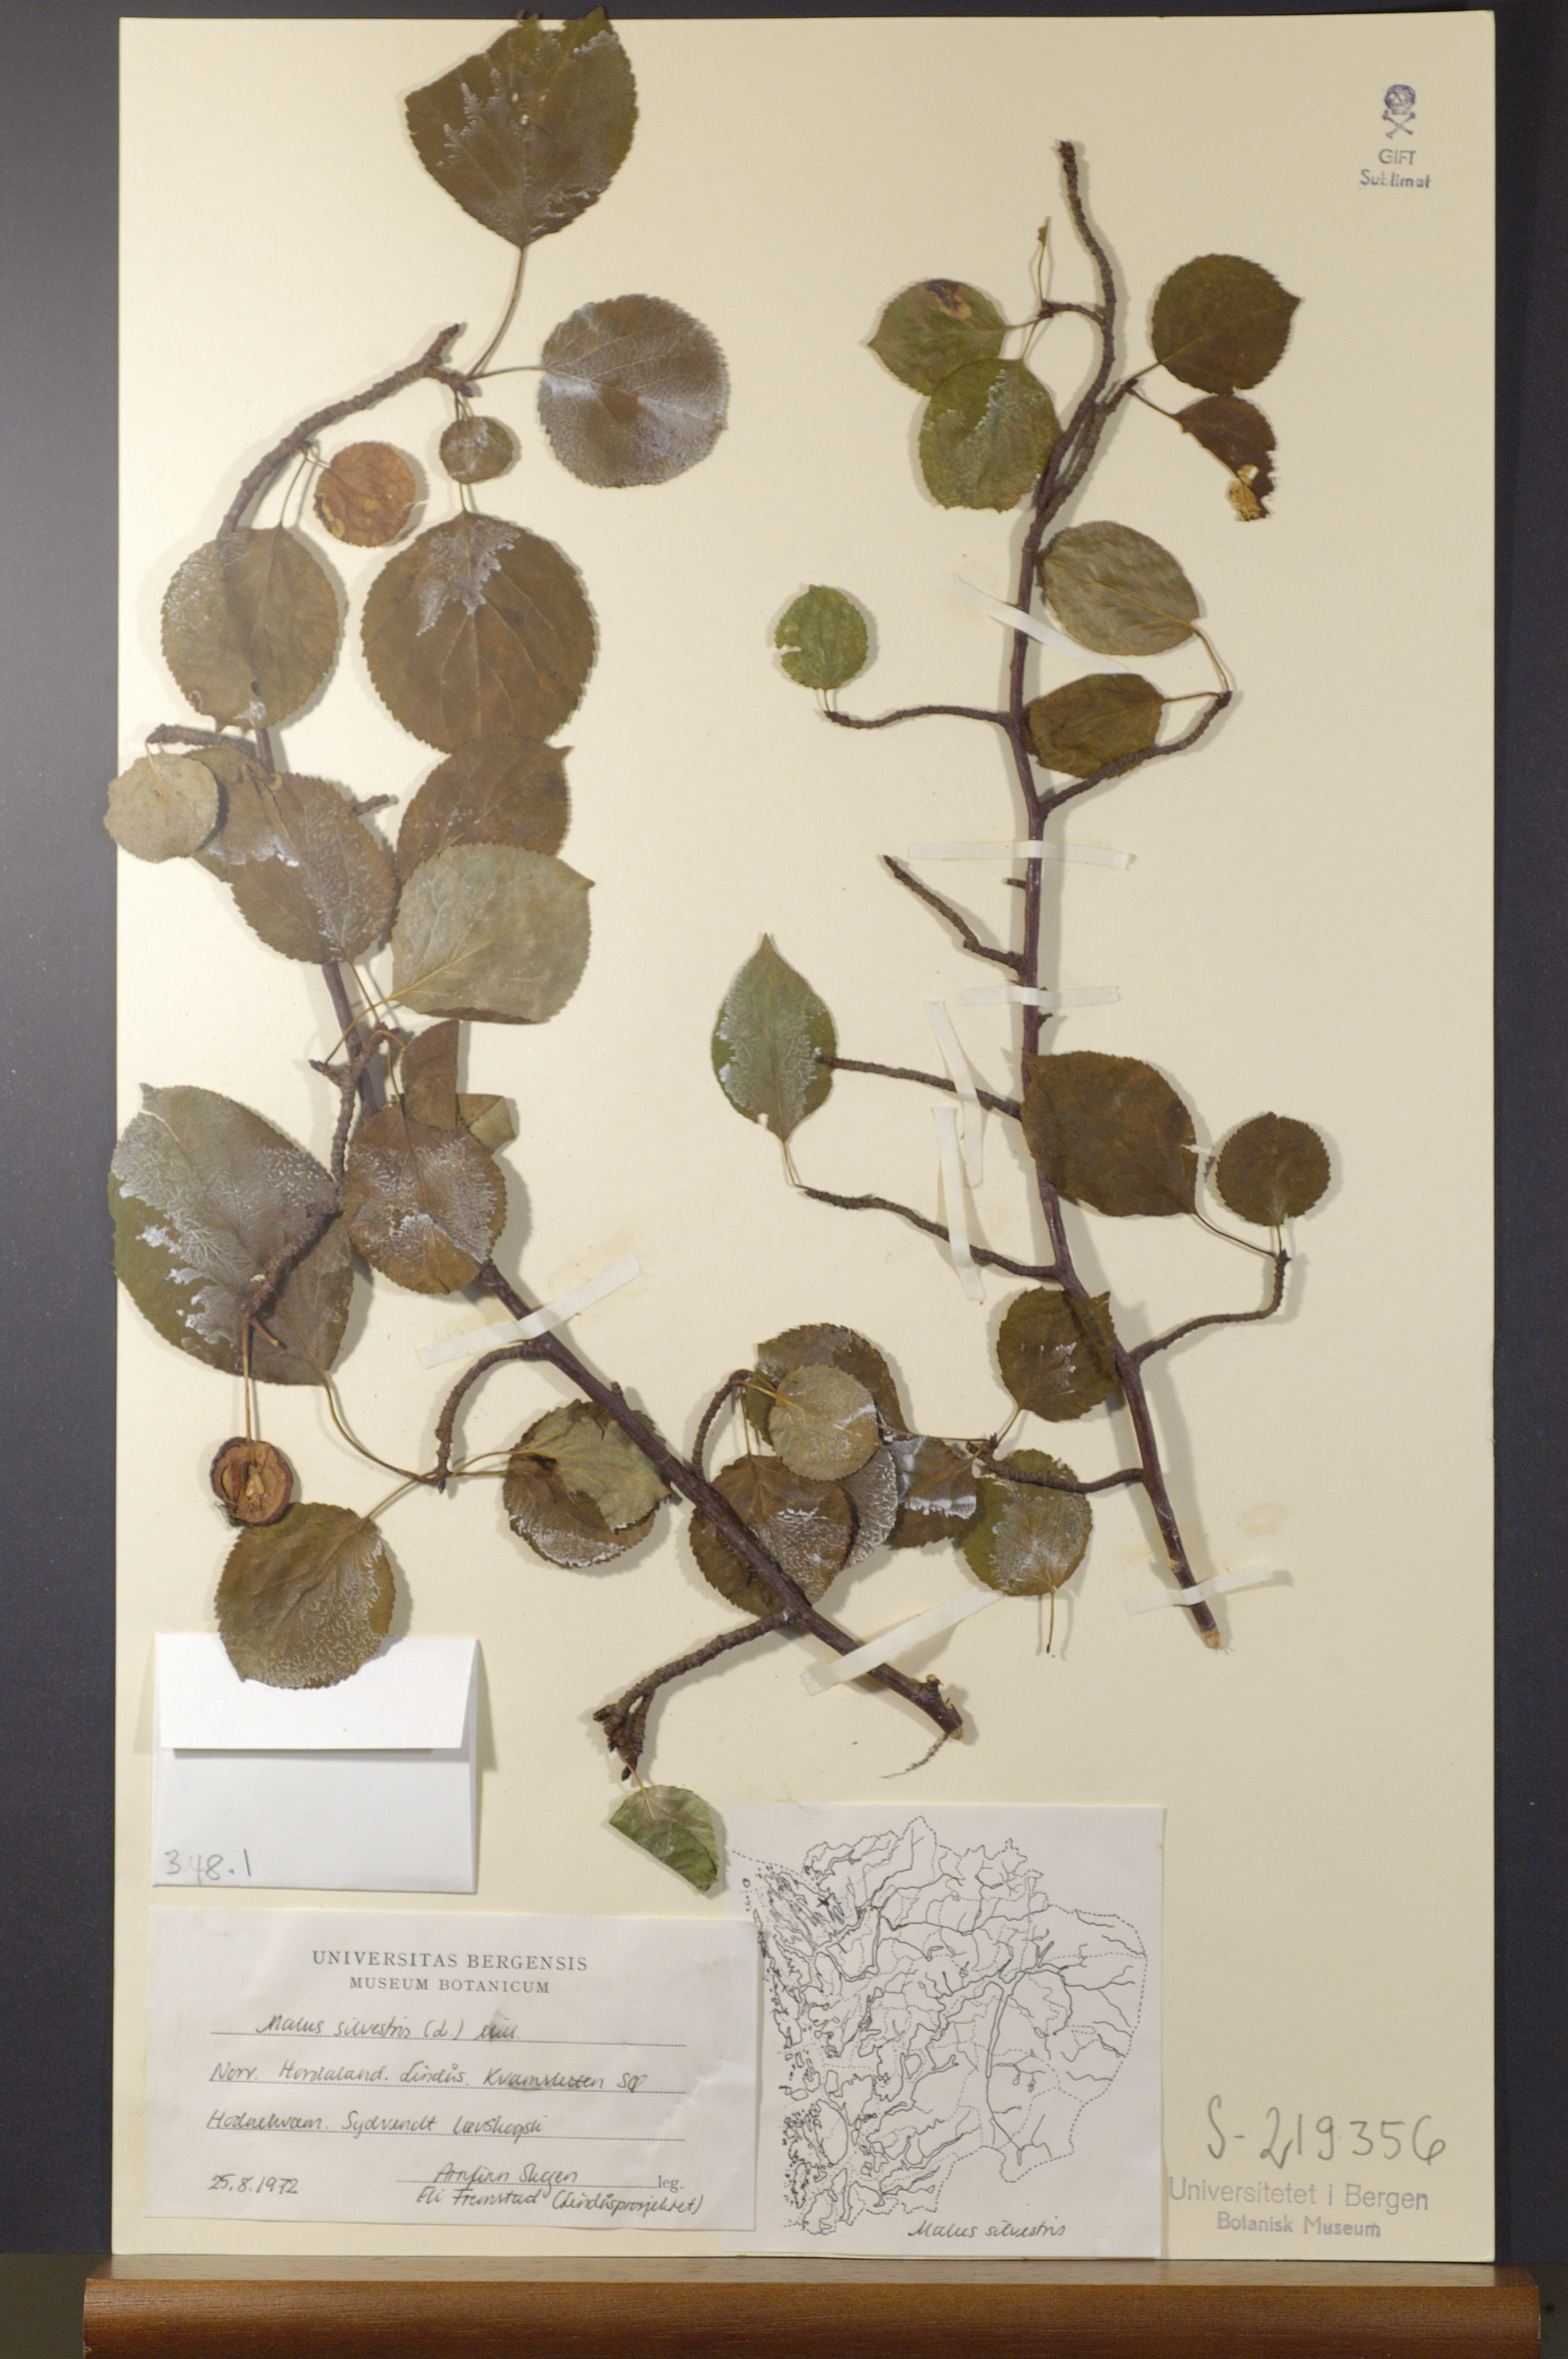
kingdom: Plantae
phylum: Tracheophyta
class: Magnoliopsida
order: Rosales
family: Rosaceae
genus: Malus
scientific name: Malus sylvestris
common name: Crab apple
